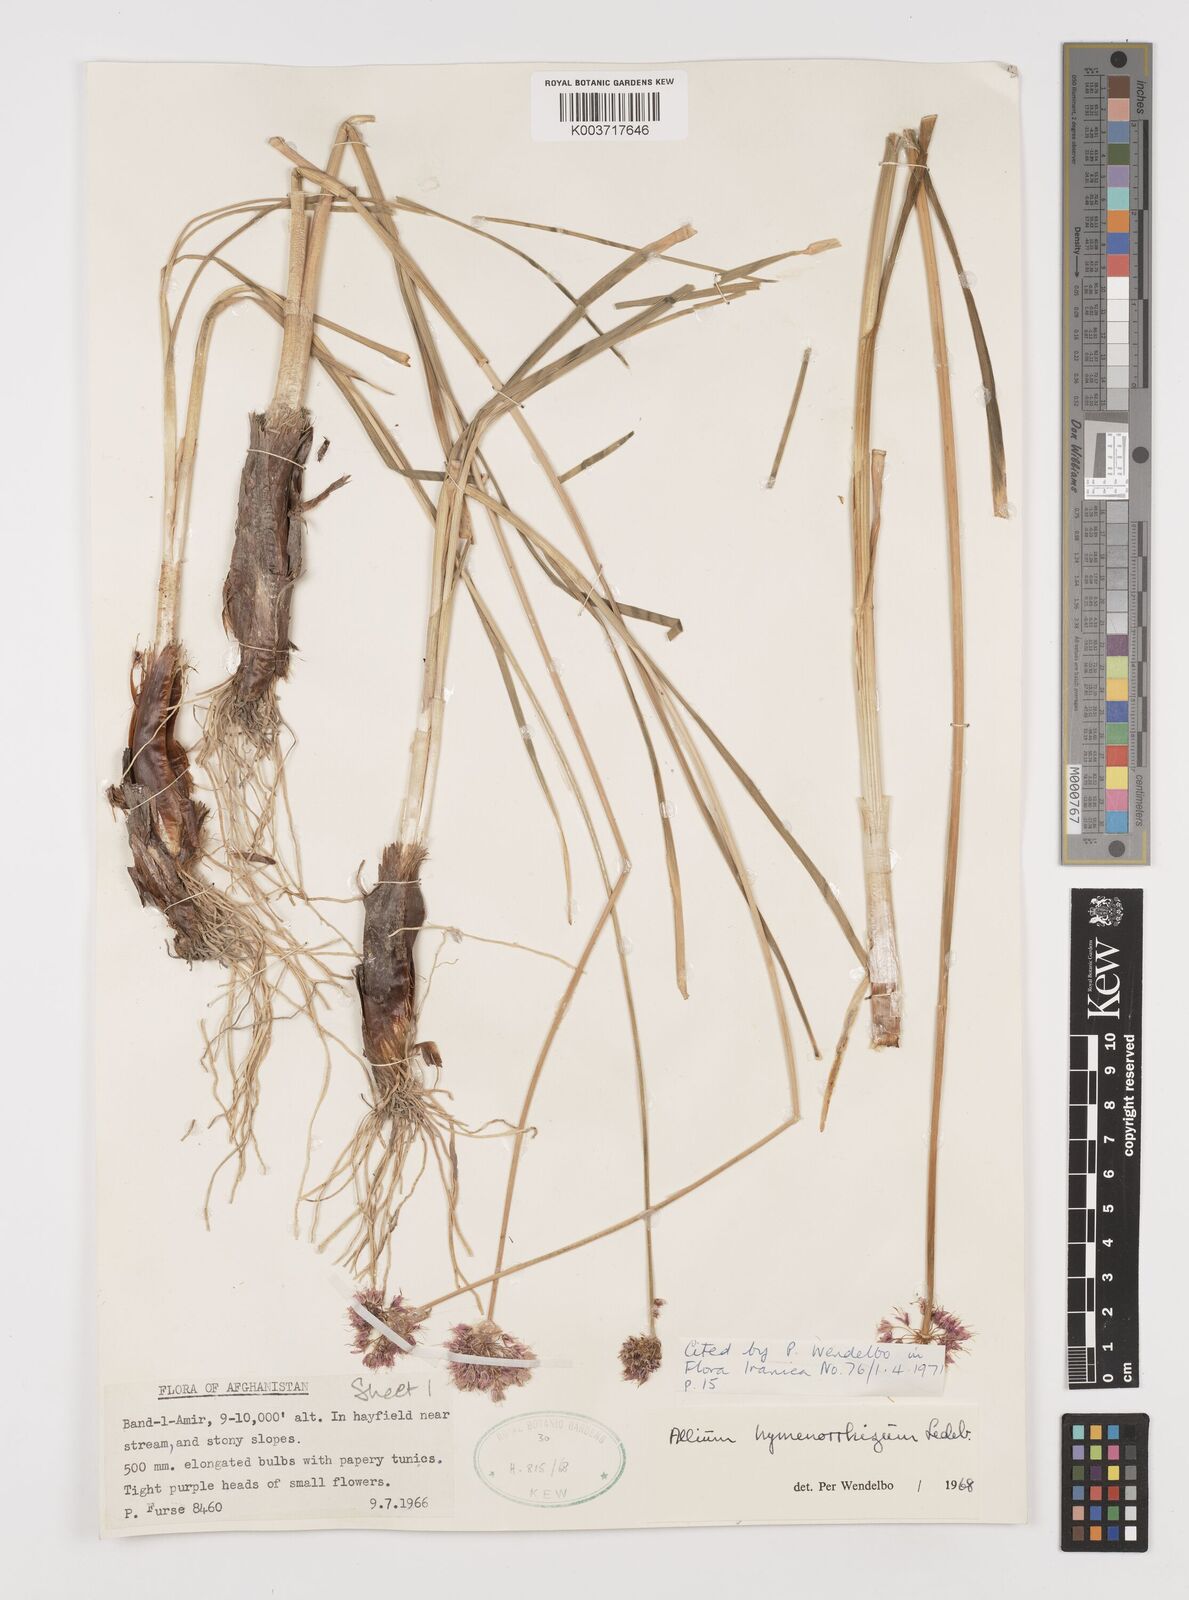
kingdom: Plantae
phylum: Tracheophyta
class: Liliopsida
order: Asparagales
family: Amaryllidaceae
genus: Allium
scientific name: Allium hymenorhizum
